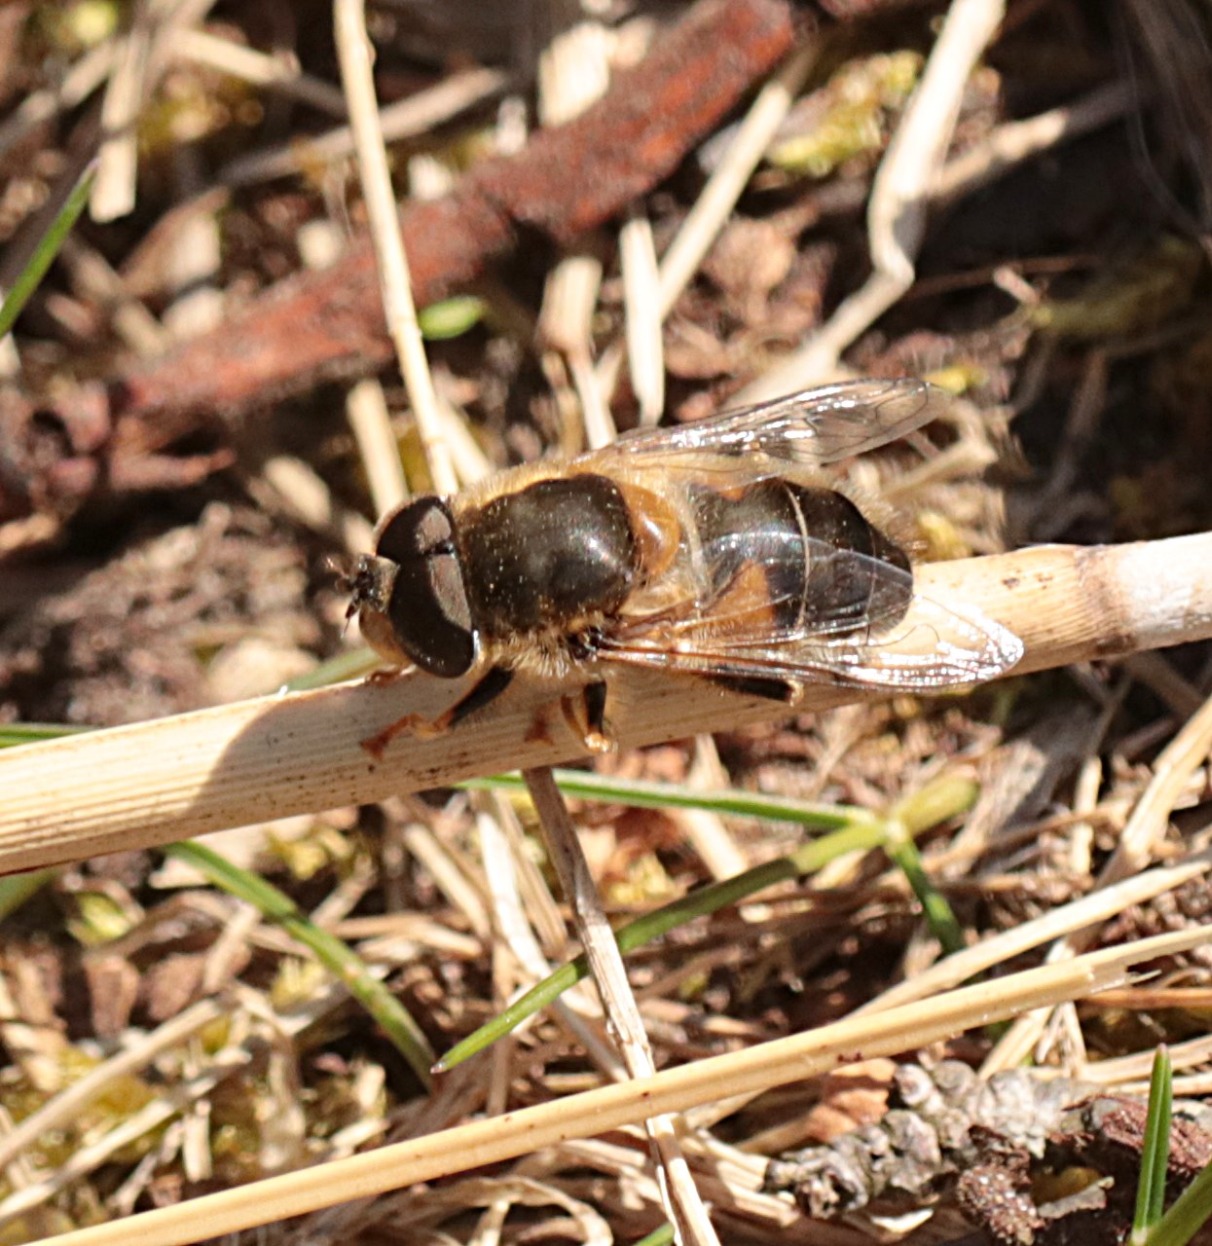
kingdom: Animalia
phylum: Arthropoda
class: Insecta
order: Diptera
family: Syrphidae
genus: Eristalis
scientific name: Eristalis pertinax
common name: Gulfodet dyndflue
